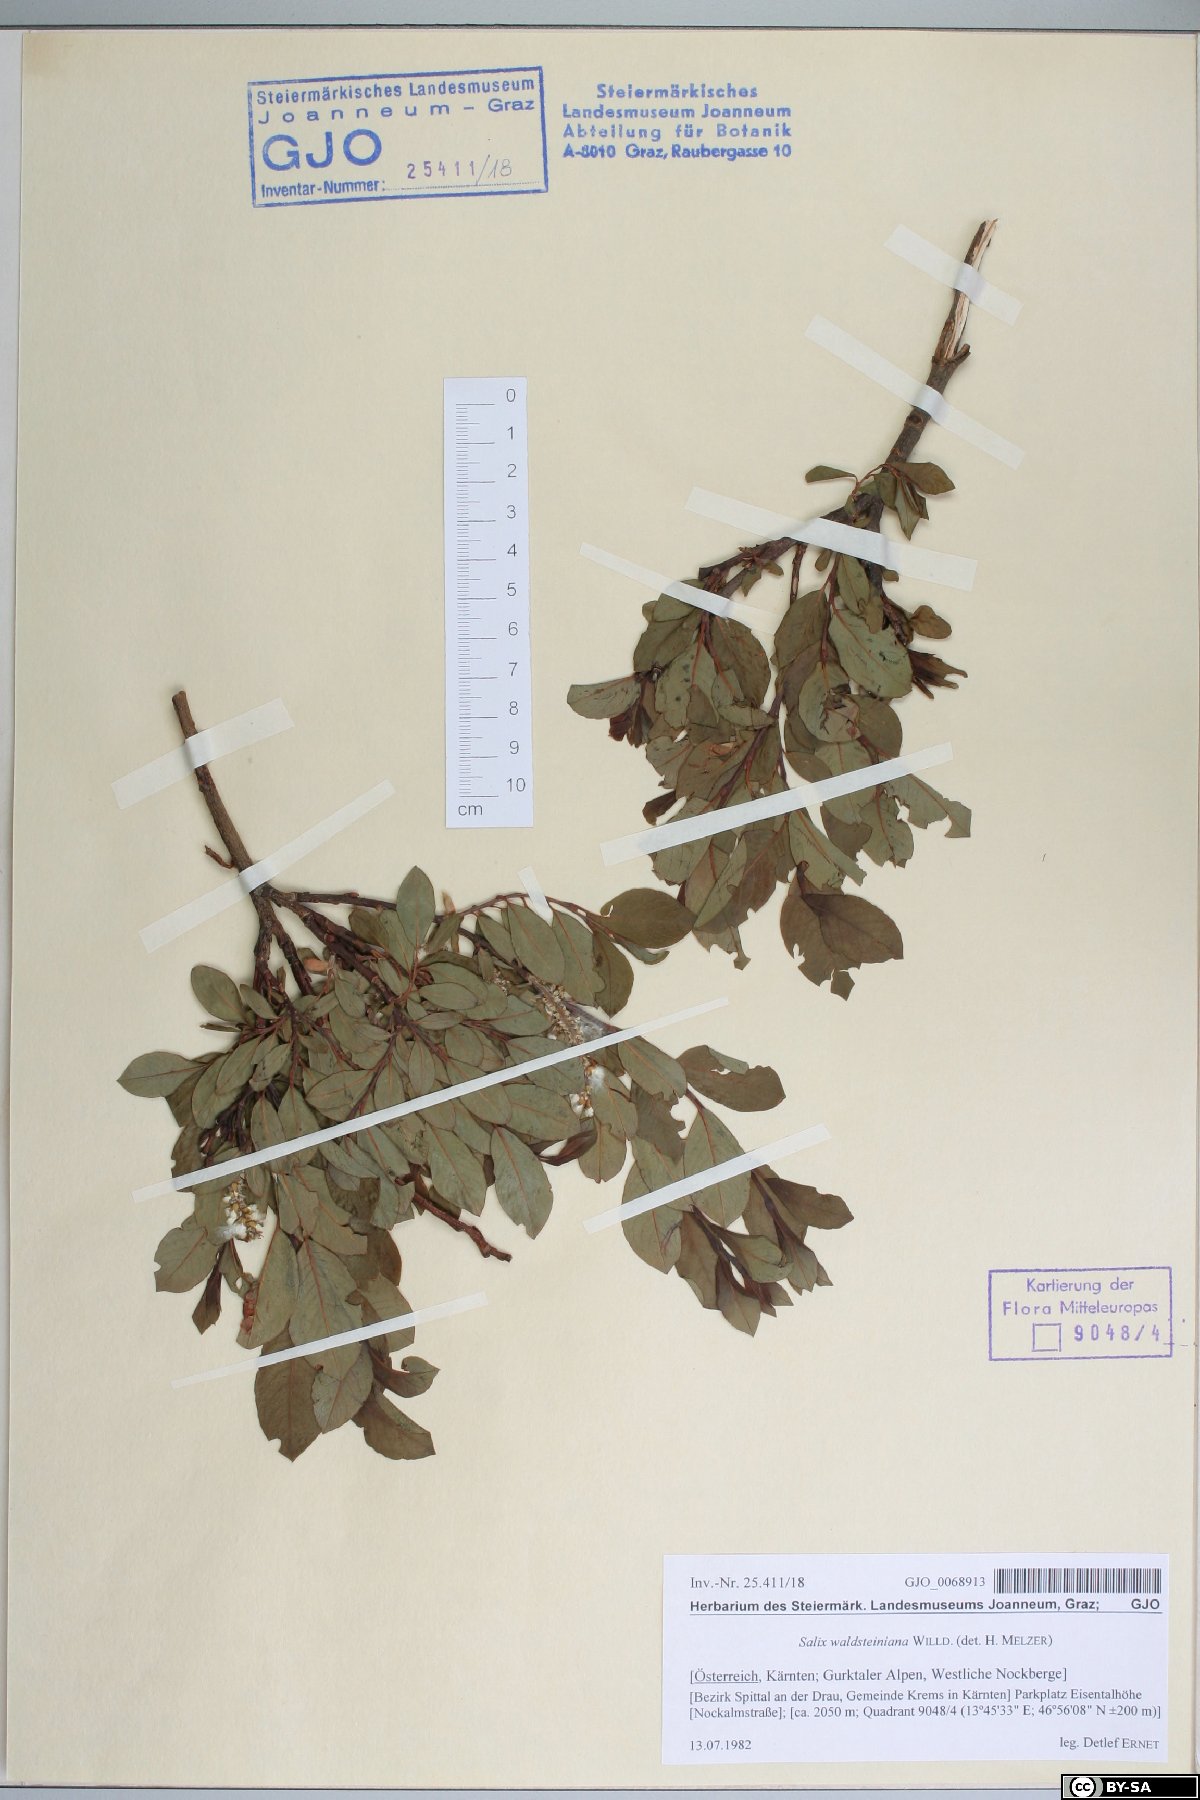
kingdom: Plantae
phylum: Tracheophyta
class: Magnoliopsida
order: Malpighiales
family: Salicaceae
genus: Salix
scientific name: Salix waldsteiniana
